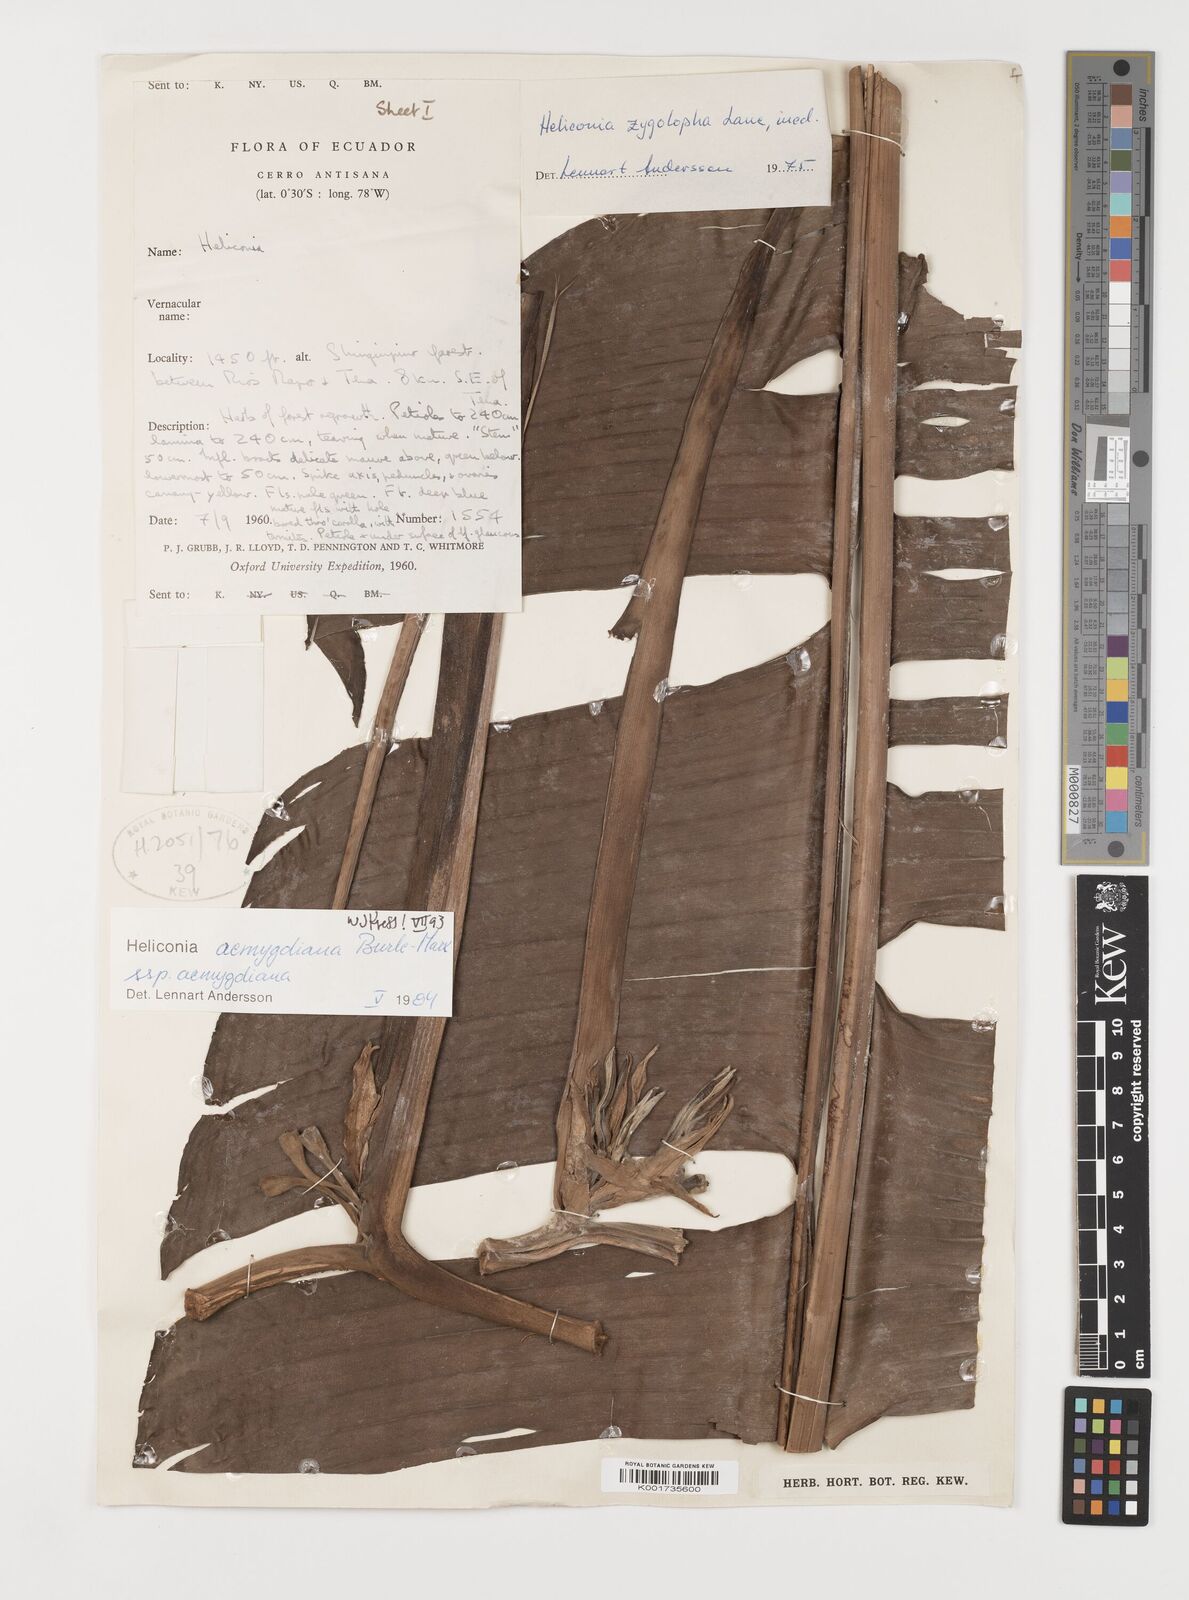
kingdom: Plantae
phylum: Tracheophyta
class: Liliopsida
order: Zingiberales
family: Heliconiaceae
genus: Heliconia
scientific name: Heliconia aemygdiana
